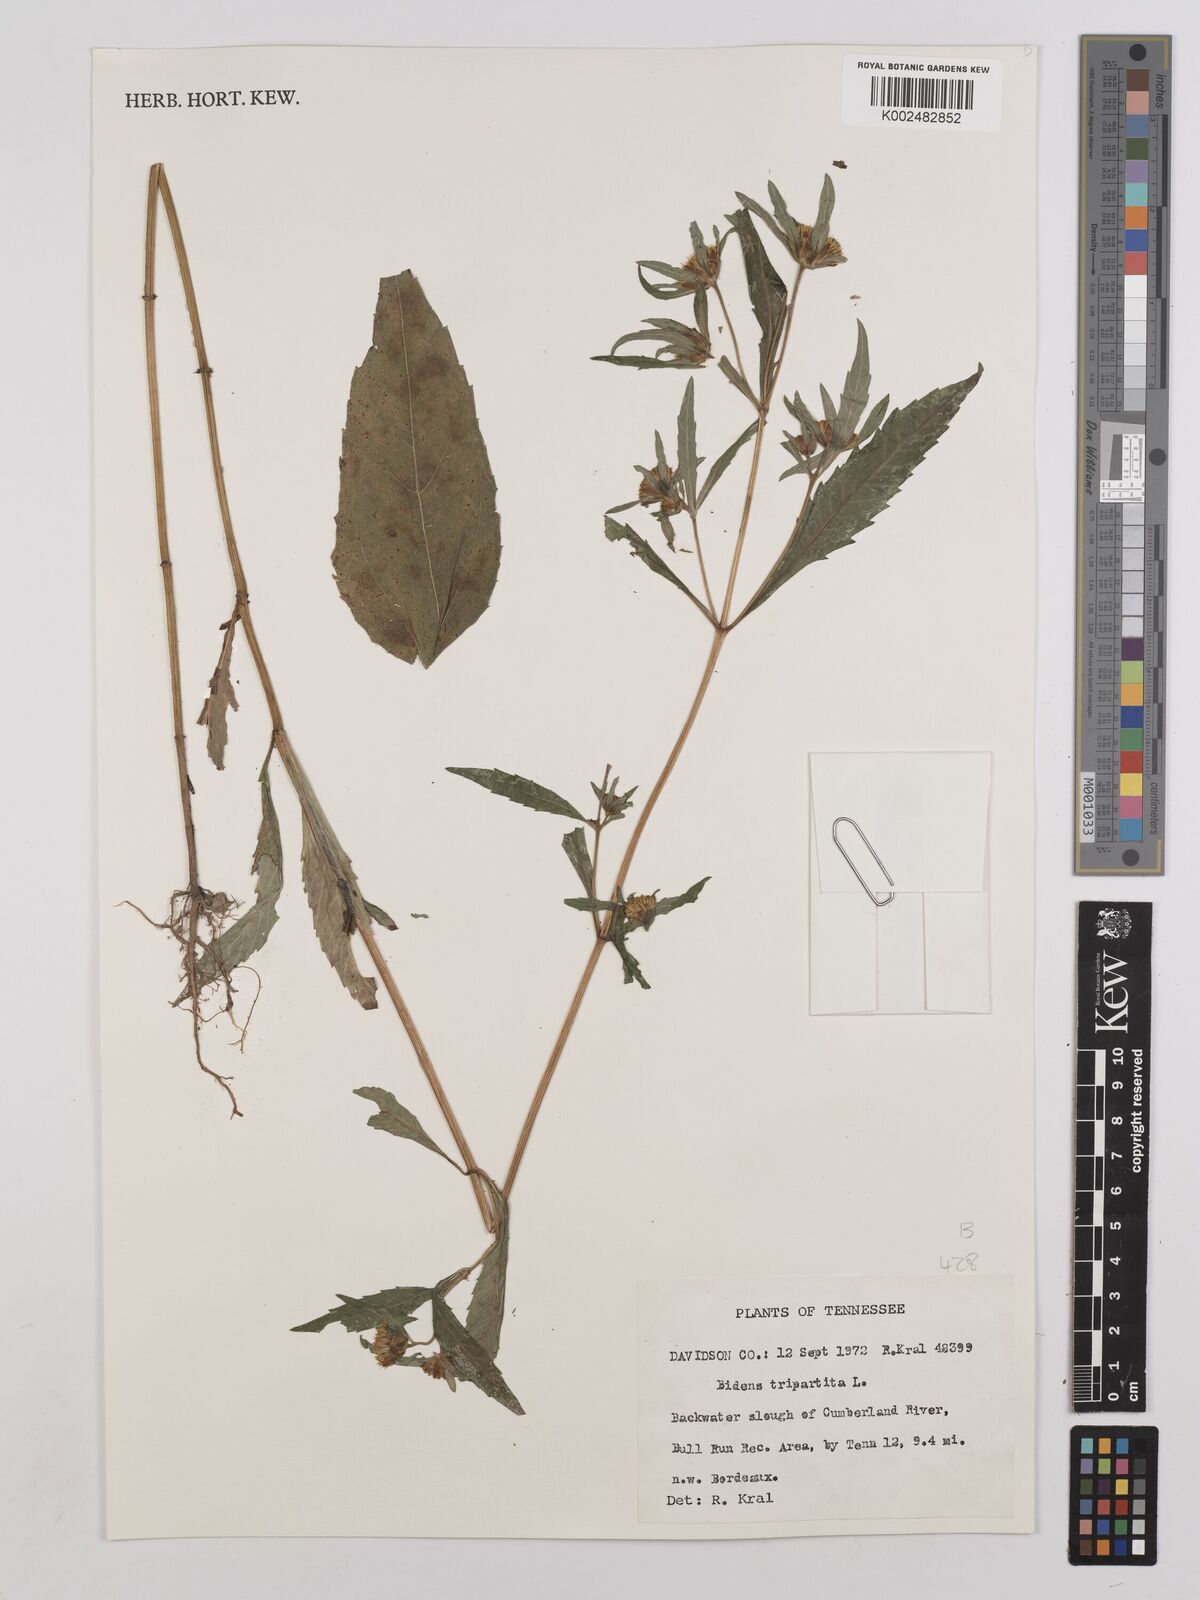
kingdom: Plantae
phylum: Tracheophyta
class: Magnoliopsida
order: Asterales
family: Asteraceae
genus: Bidens
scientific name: Bidens tripartita
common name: Trifid bur-marigold
